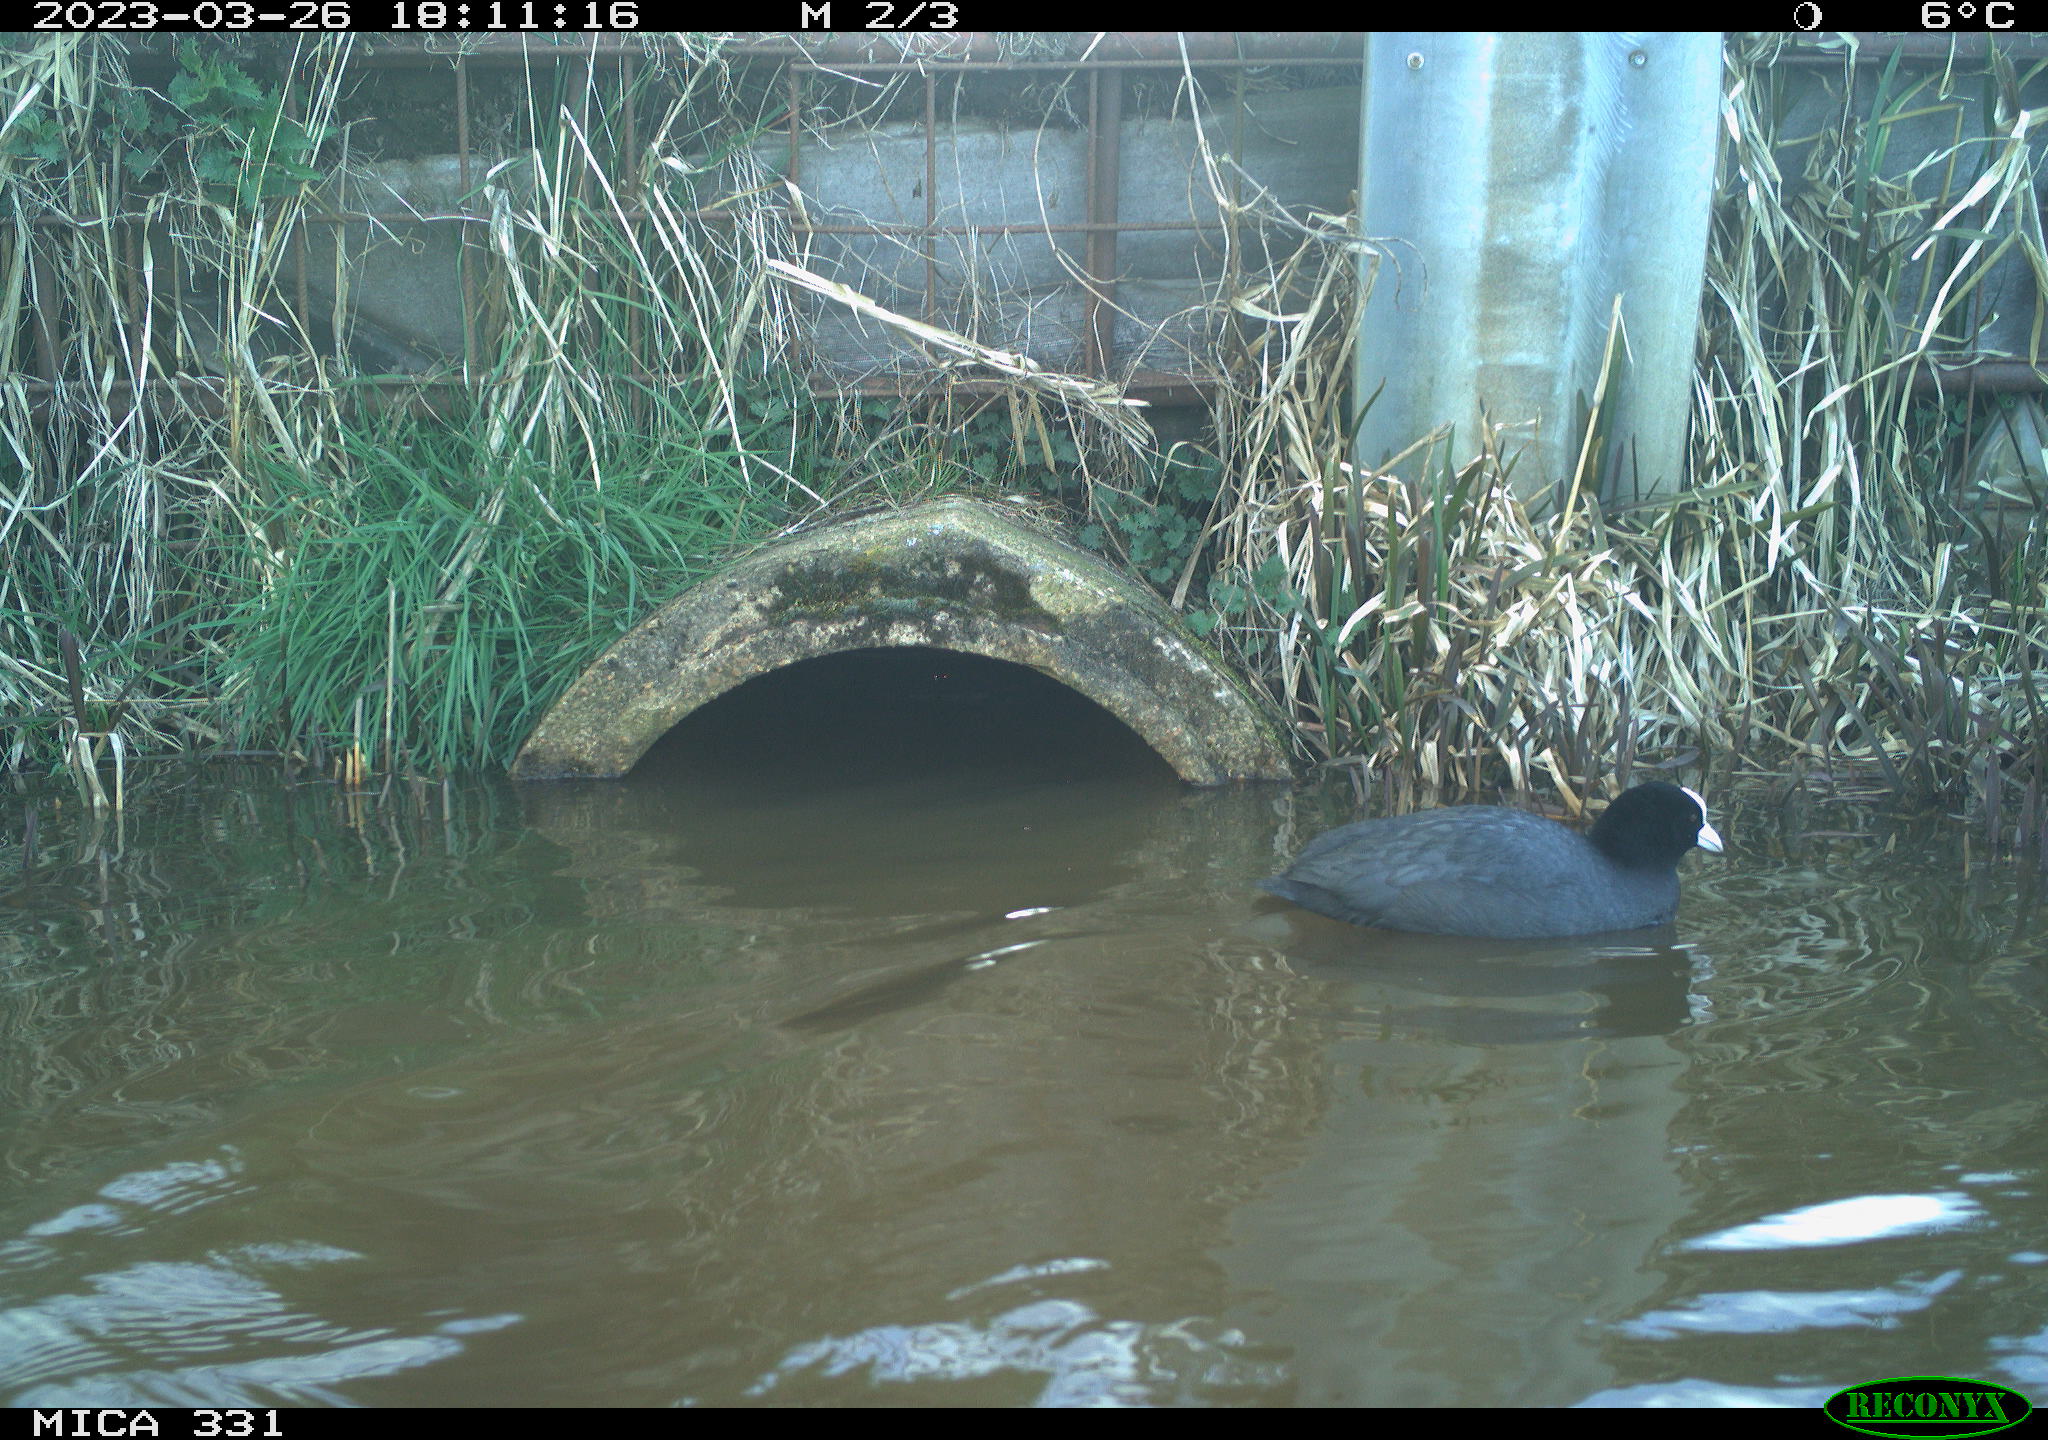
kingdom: Animalia
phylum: Chordata
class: Aves
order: Gruiformes
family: Rallidae
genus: Fulica
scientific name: Fulica atra
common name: Eurasian coot
